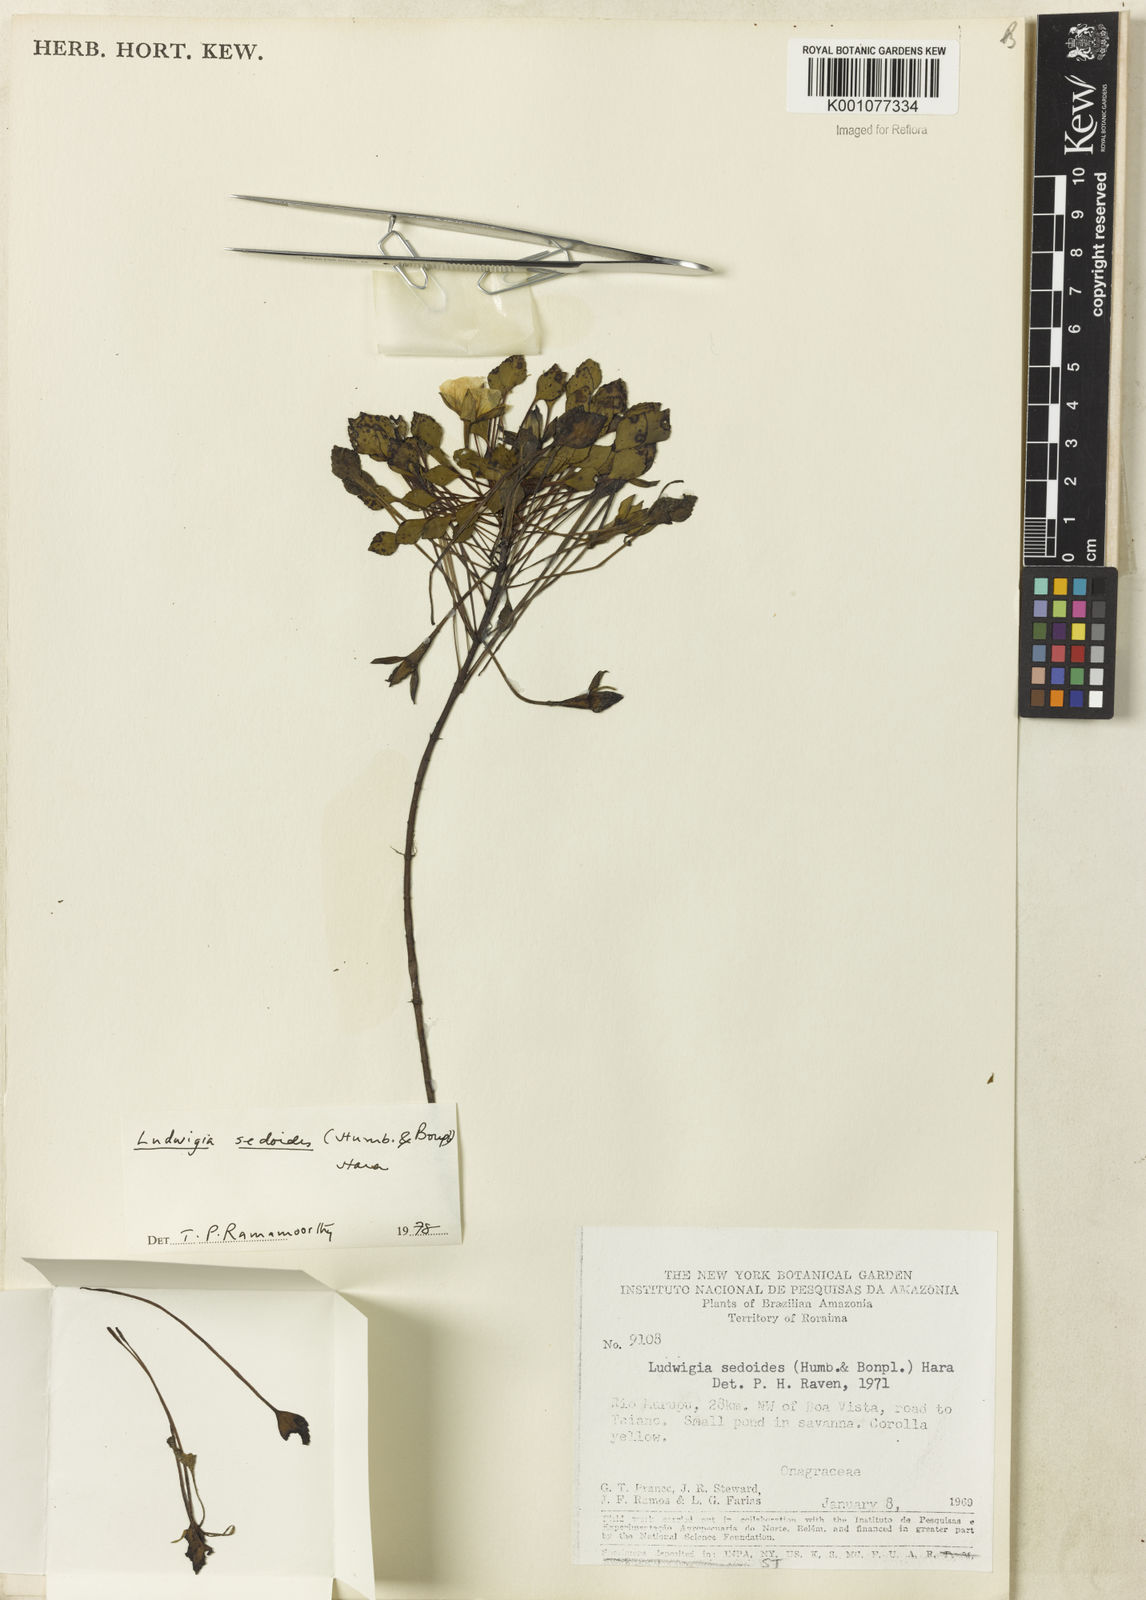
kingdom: Plantae
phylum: Tracheophyta
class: Magnoliopsida
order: Myrtales
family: Onagraceae
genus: Ludwigia
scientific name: Ludwigia sedoides
